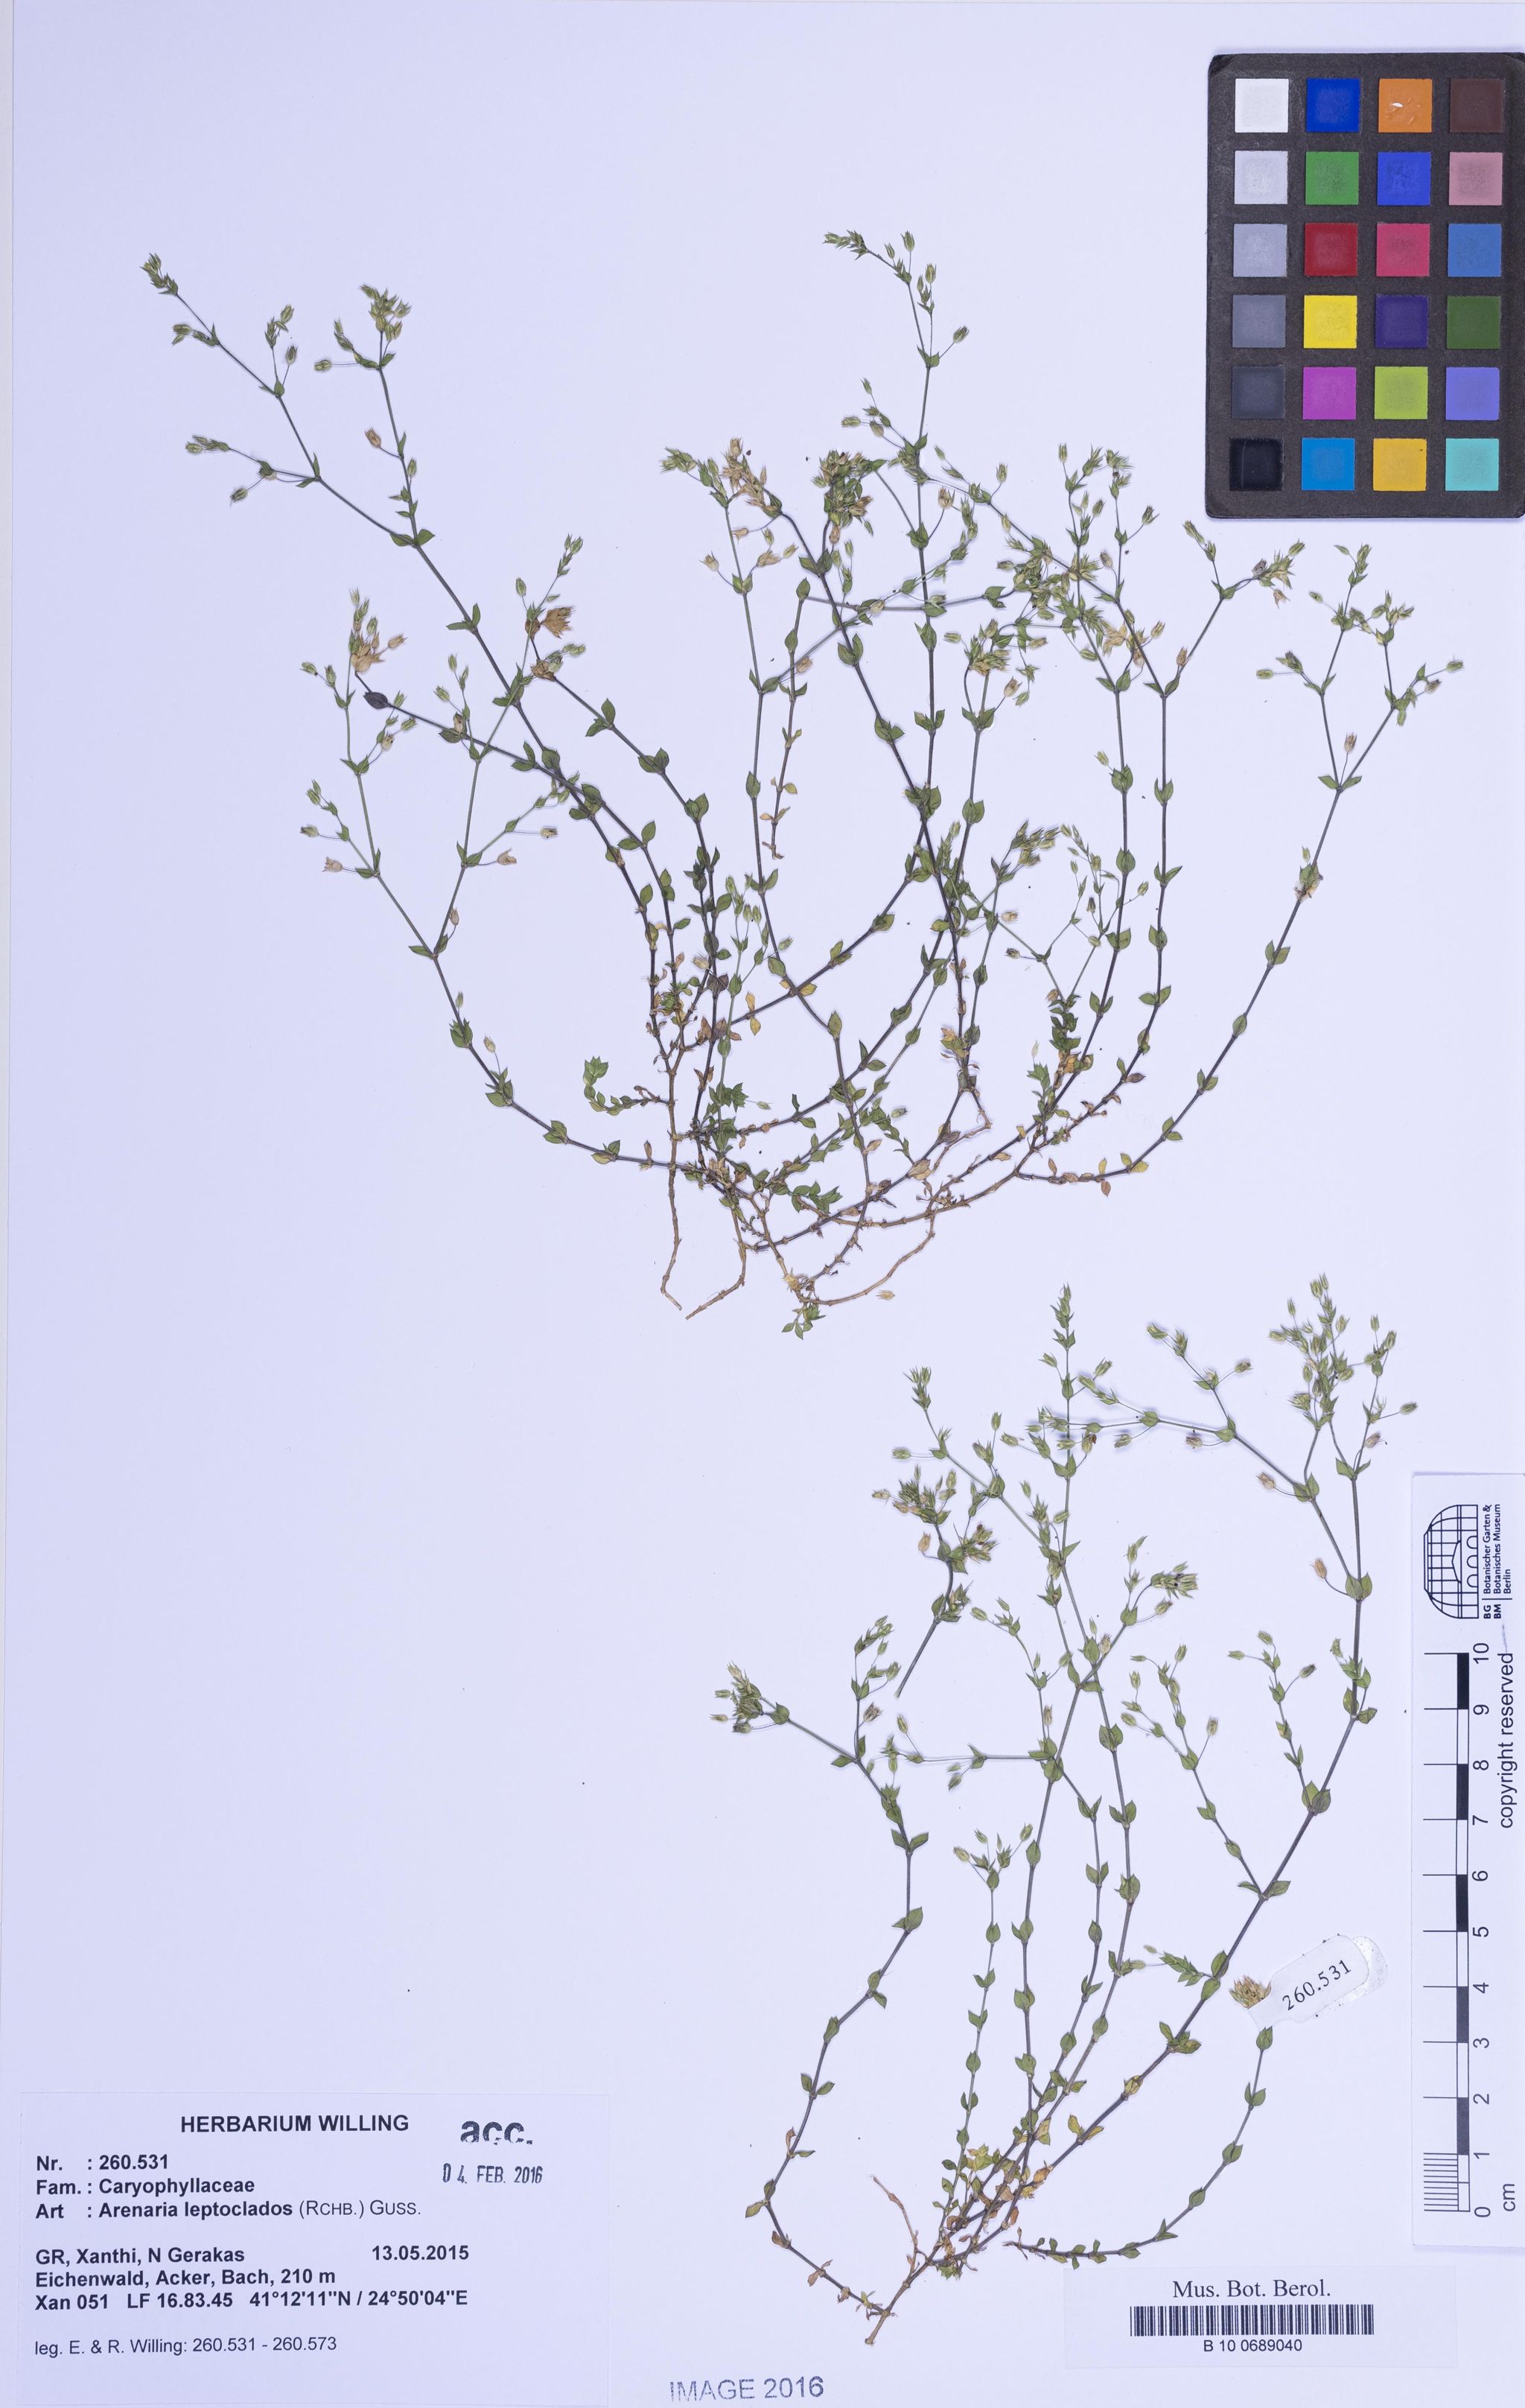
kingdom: Plantae
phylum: Tracheophyta
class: Magnoliopsida
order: Caryophyllales
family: Caryophyllaceae
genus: Arenaria
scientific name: Arenaria leptoclados
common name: Thyme-leaved sandwort
